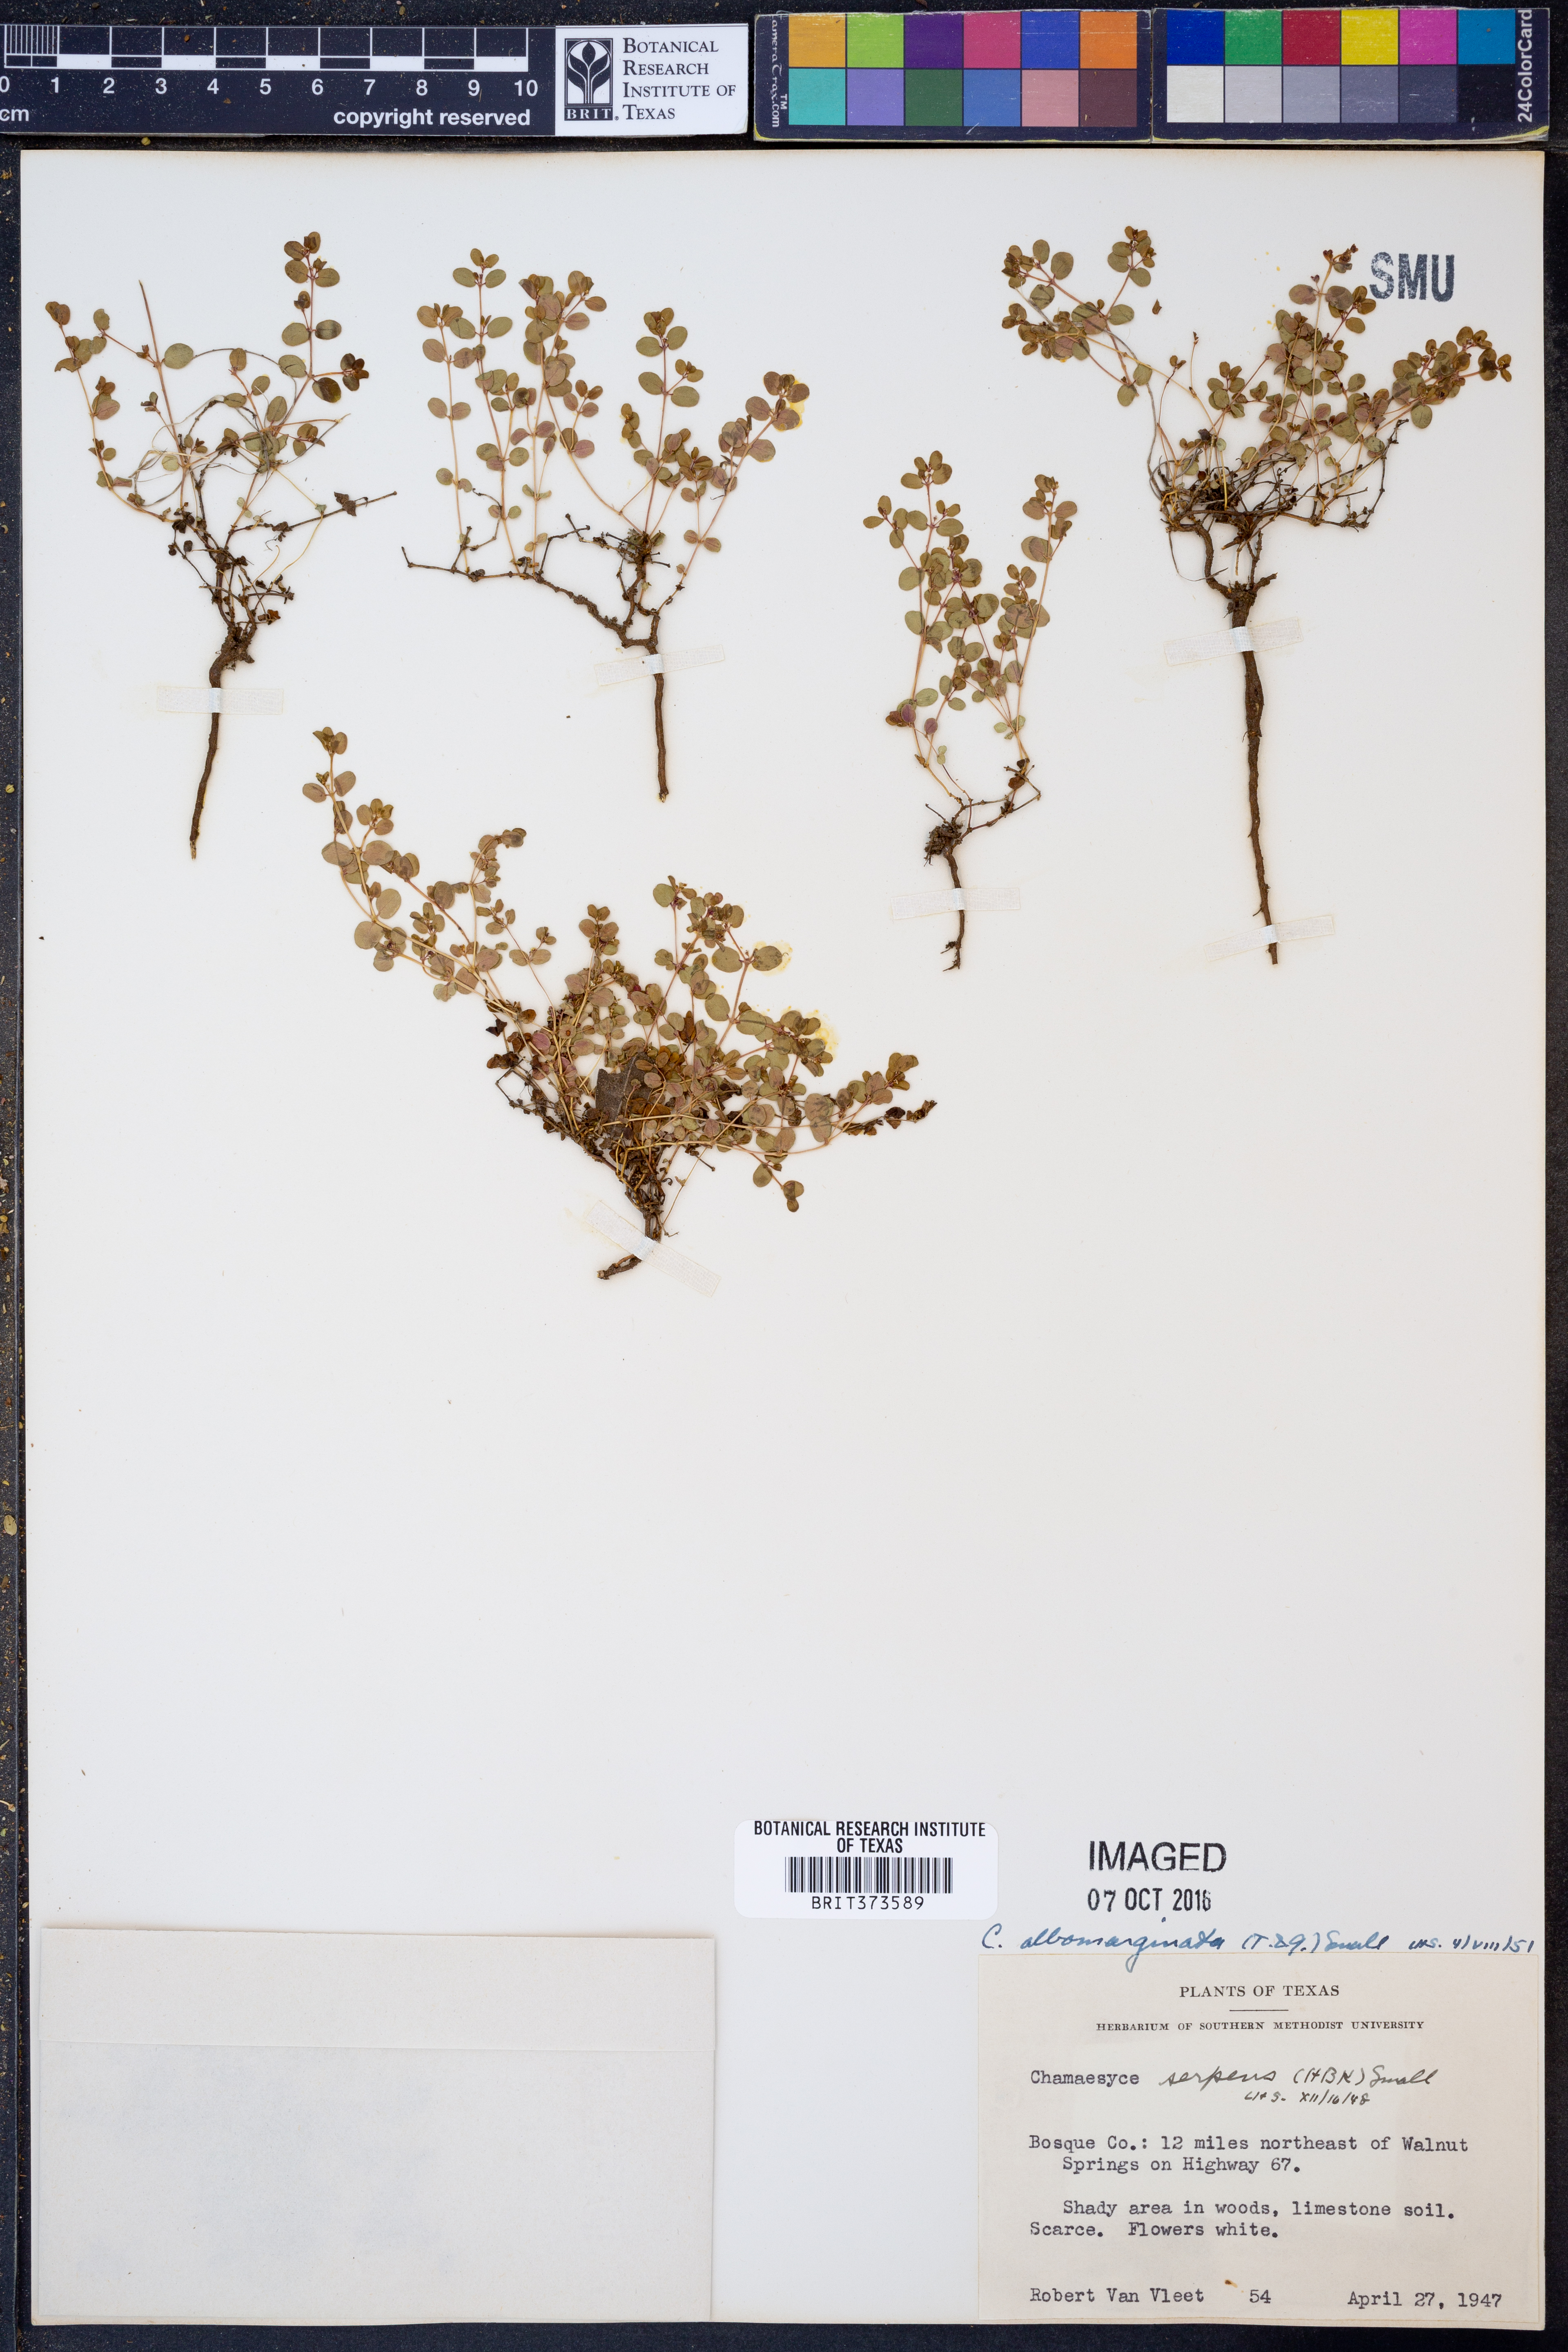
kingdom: Plantae
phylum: Tracheophyta
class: Magnoliopsida
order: Malpighiales
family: Euphorbiaceae
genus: Euphorbia
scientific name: Euphorbia albomarginata
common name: Whitemargin sandmat
